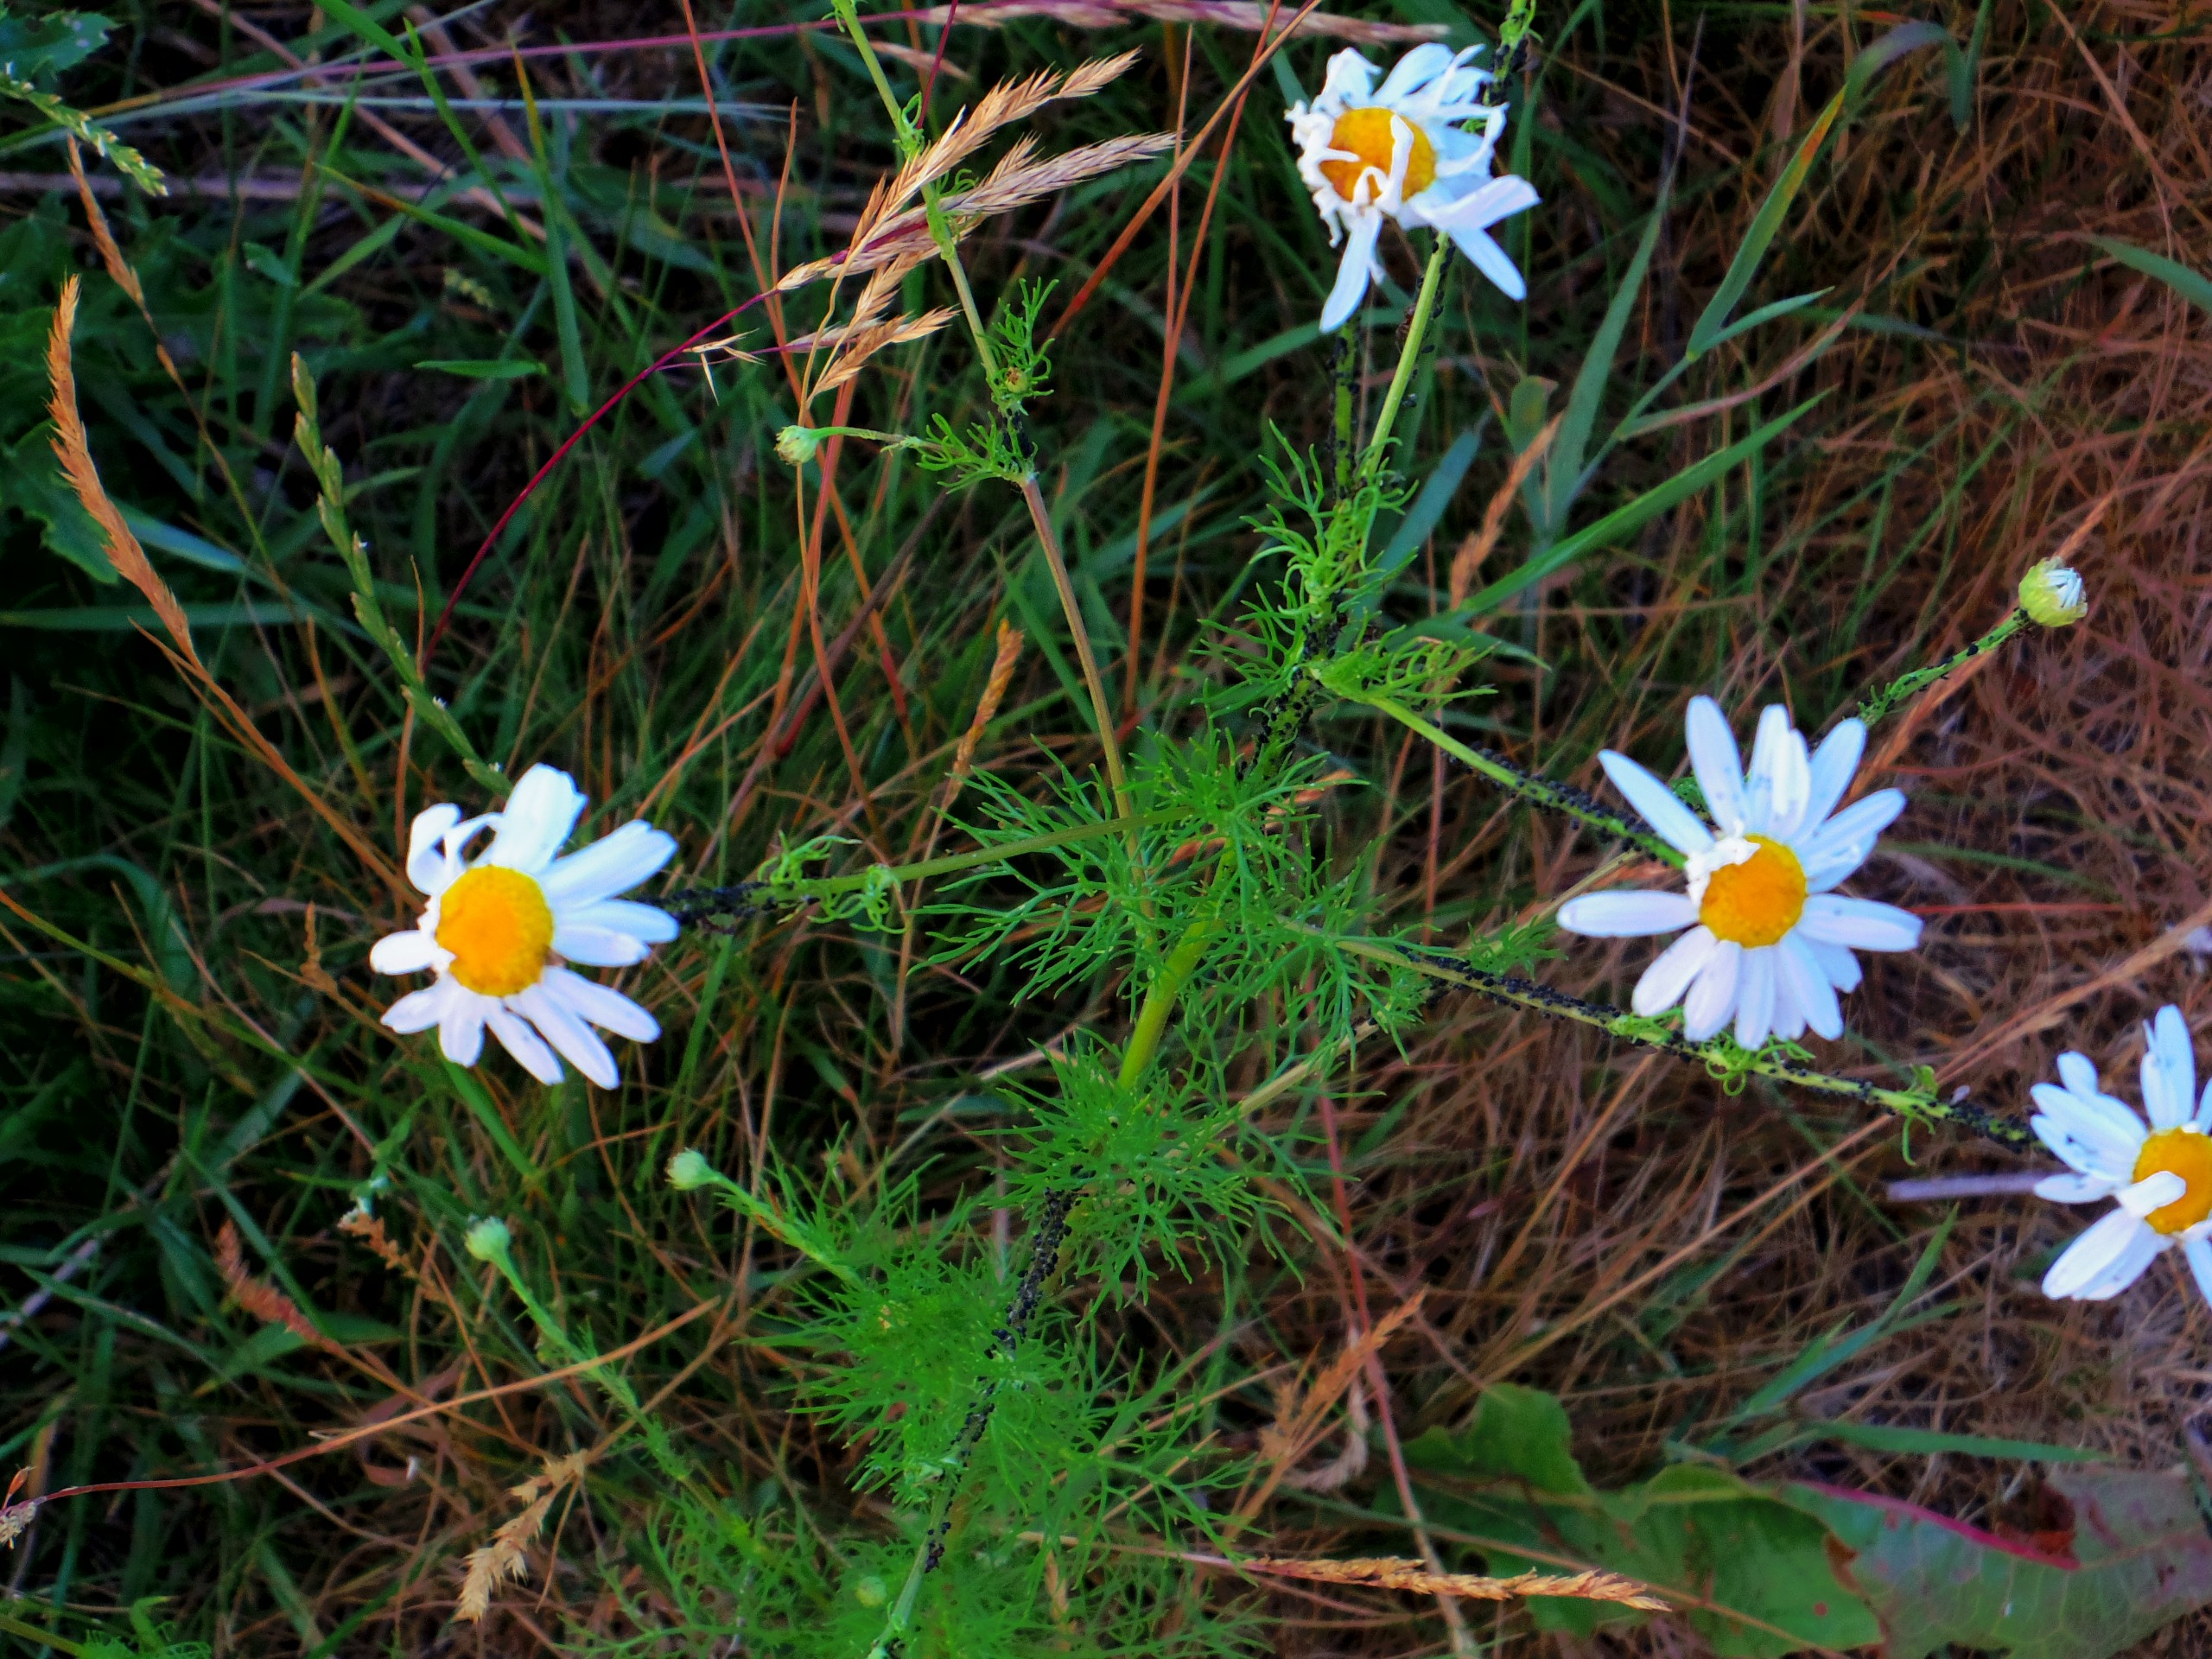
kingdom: Plantae
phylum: Tracheophyta
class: Magnoliopsida
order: Asterales
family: Asteraceae
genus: Tripleurospermum
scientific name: Tripleurospermum inodorum
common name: Lugtløs kamille
